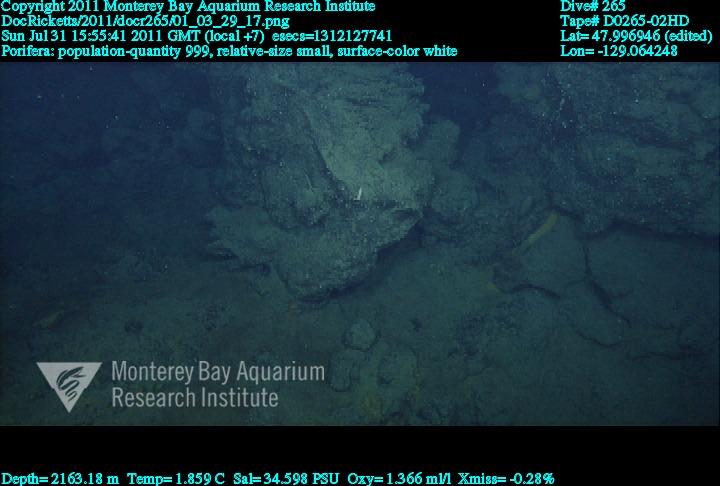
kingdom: Animalia
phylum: Porifera
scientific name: Porifera
